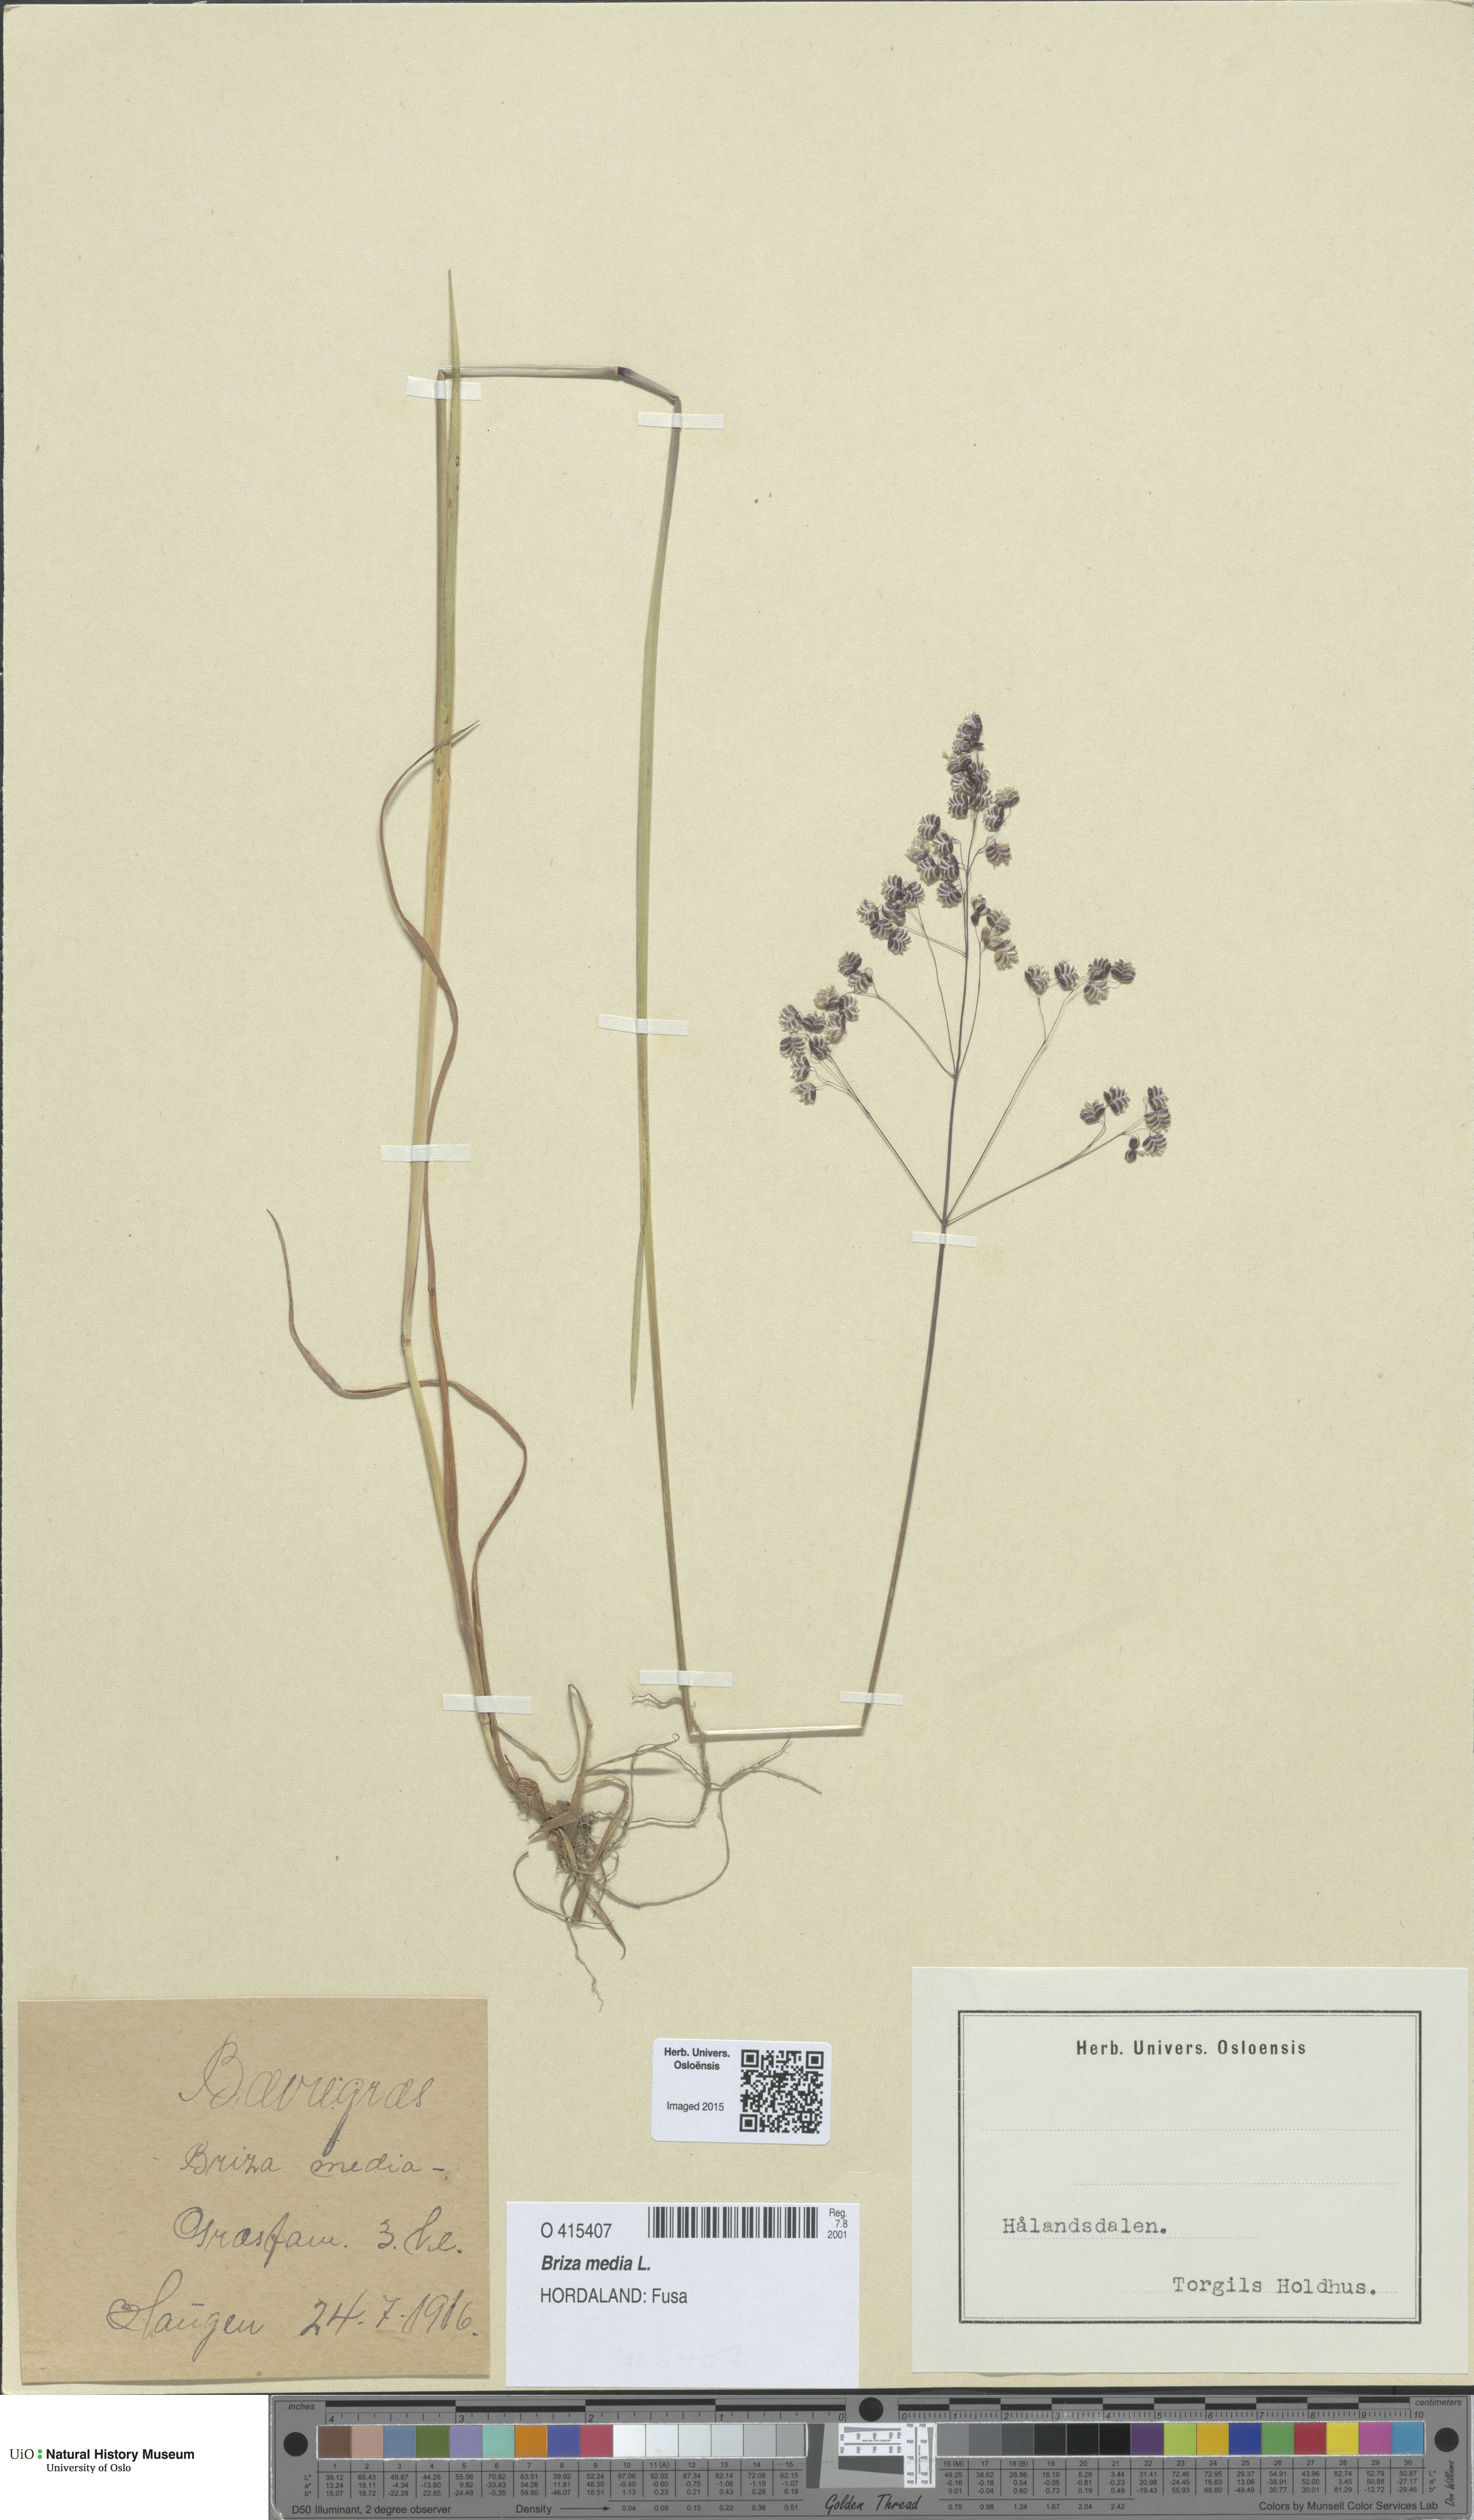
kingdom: Plantae
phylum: Tracheophyta
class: Liliopsida
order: Poales
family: Poaceae
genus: Briza
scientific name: Briza media
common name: Quaking grass
